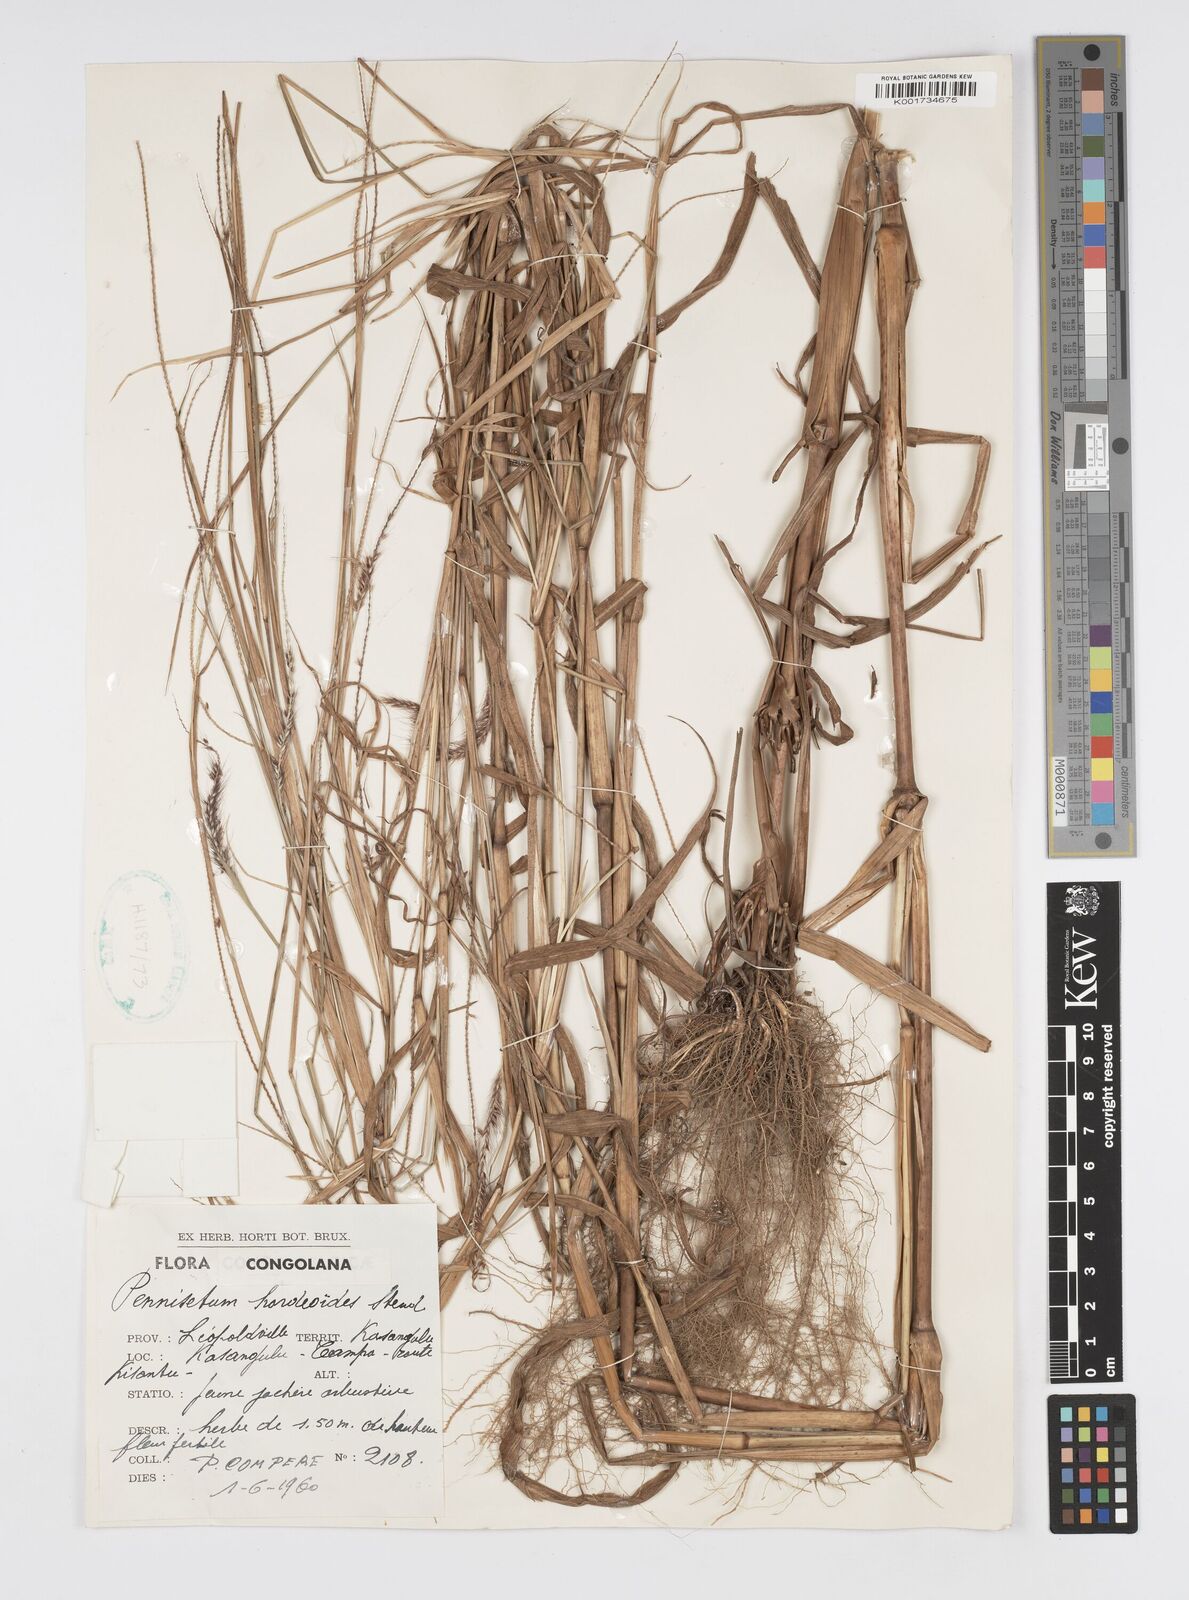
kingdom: Plantae
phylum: Tracheophyta
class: Liliopsida
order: Poales
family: Poaceae
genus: Cenchrus
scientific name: Cenchrus hordeoides
